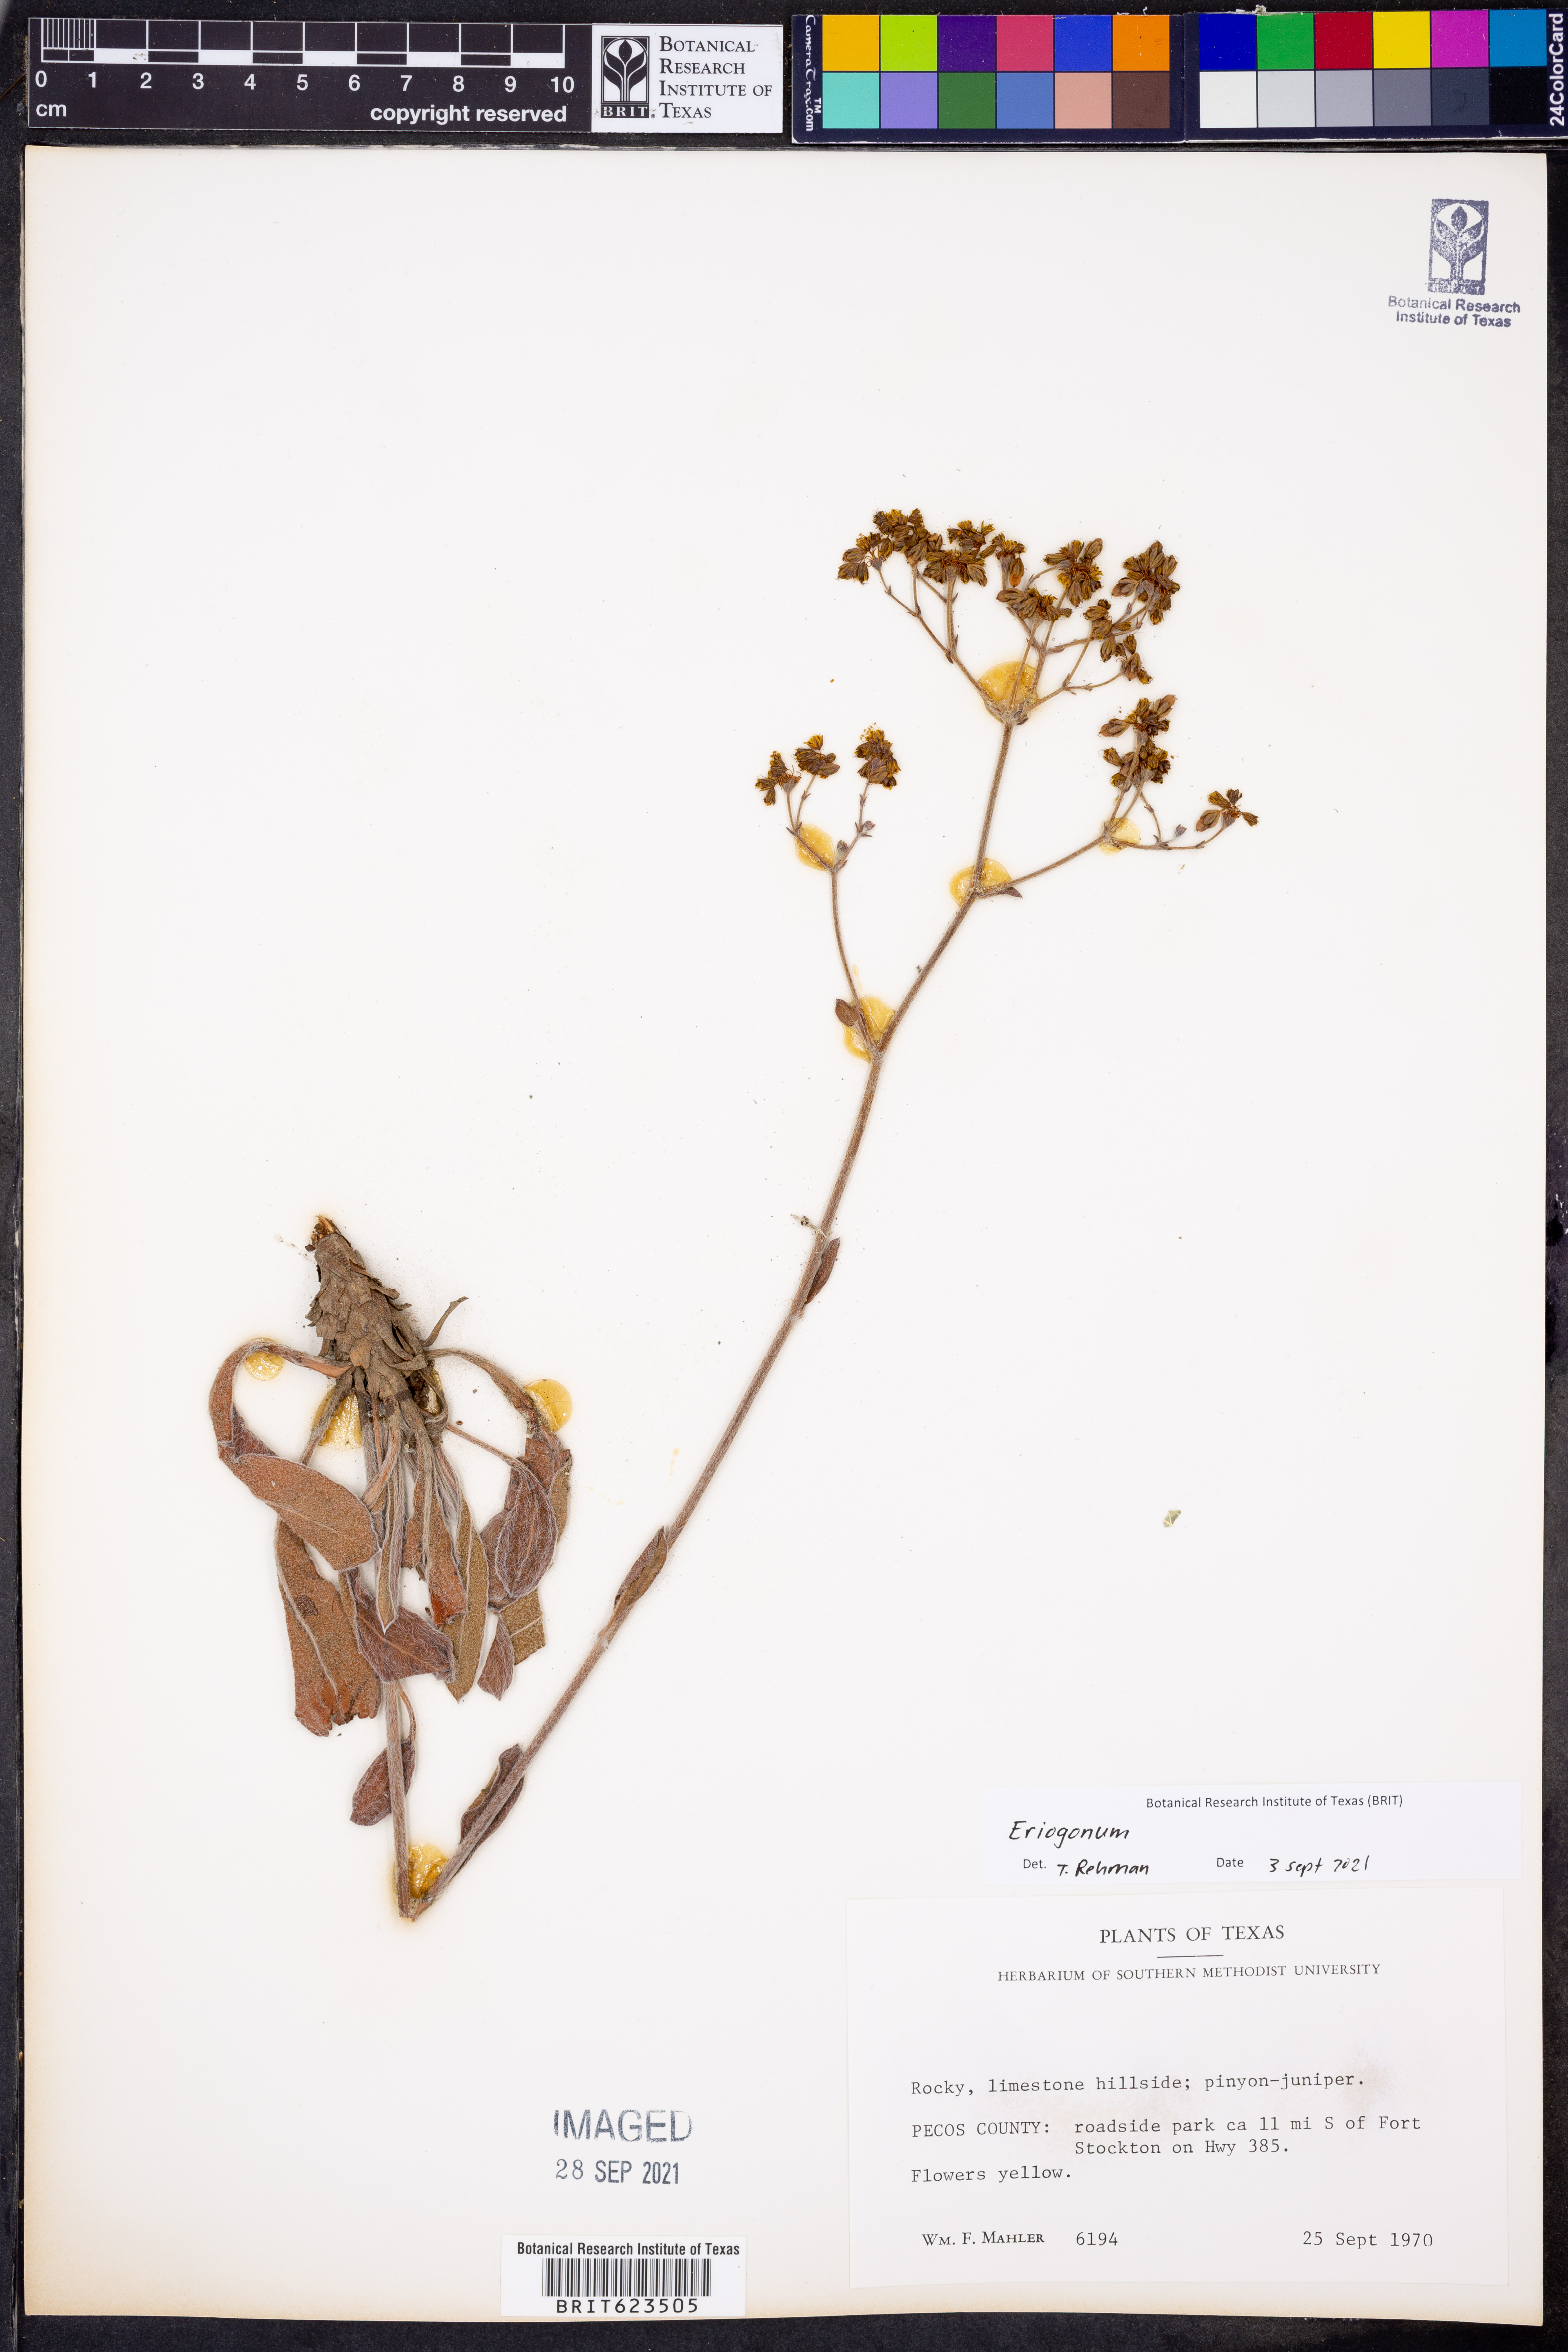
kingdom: Plantae
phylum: Tracheophyta
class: Magnoliopsida
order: Caryophyllales
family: Polygonaceae
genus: Eriogonum
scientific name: Eriogonum
